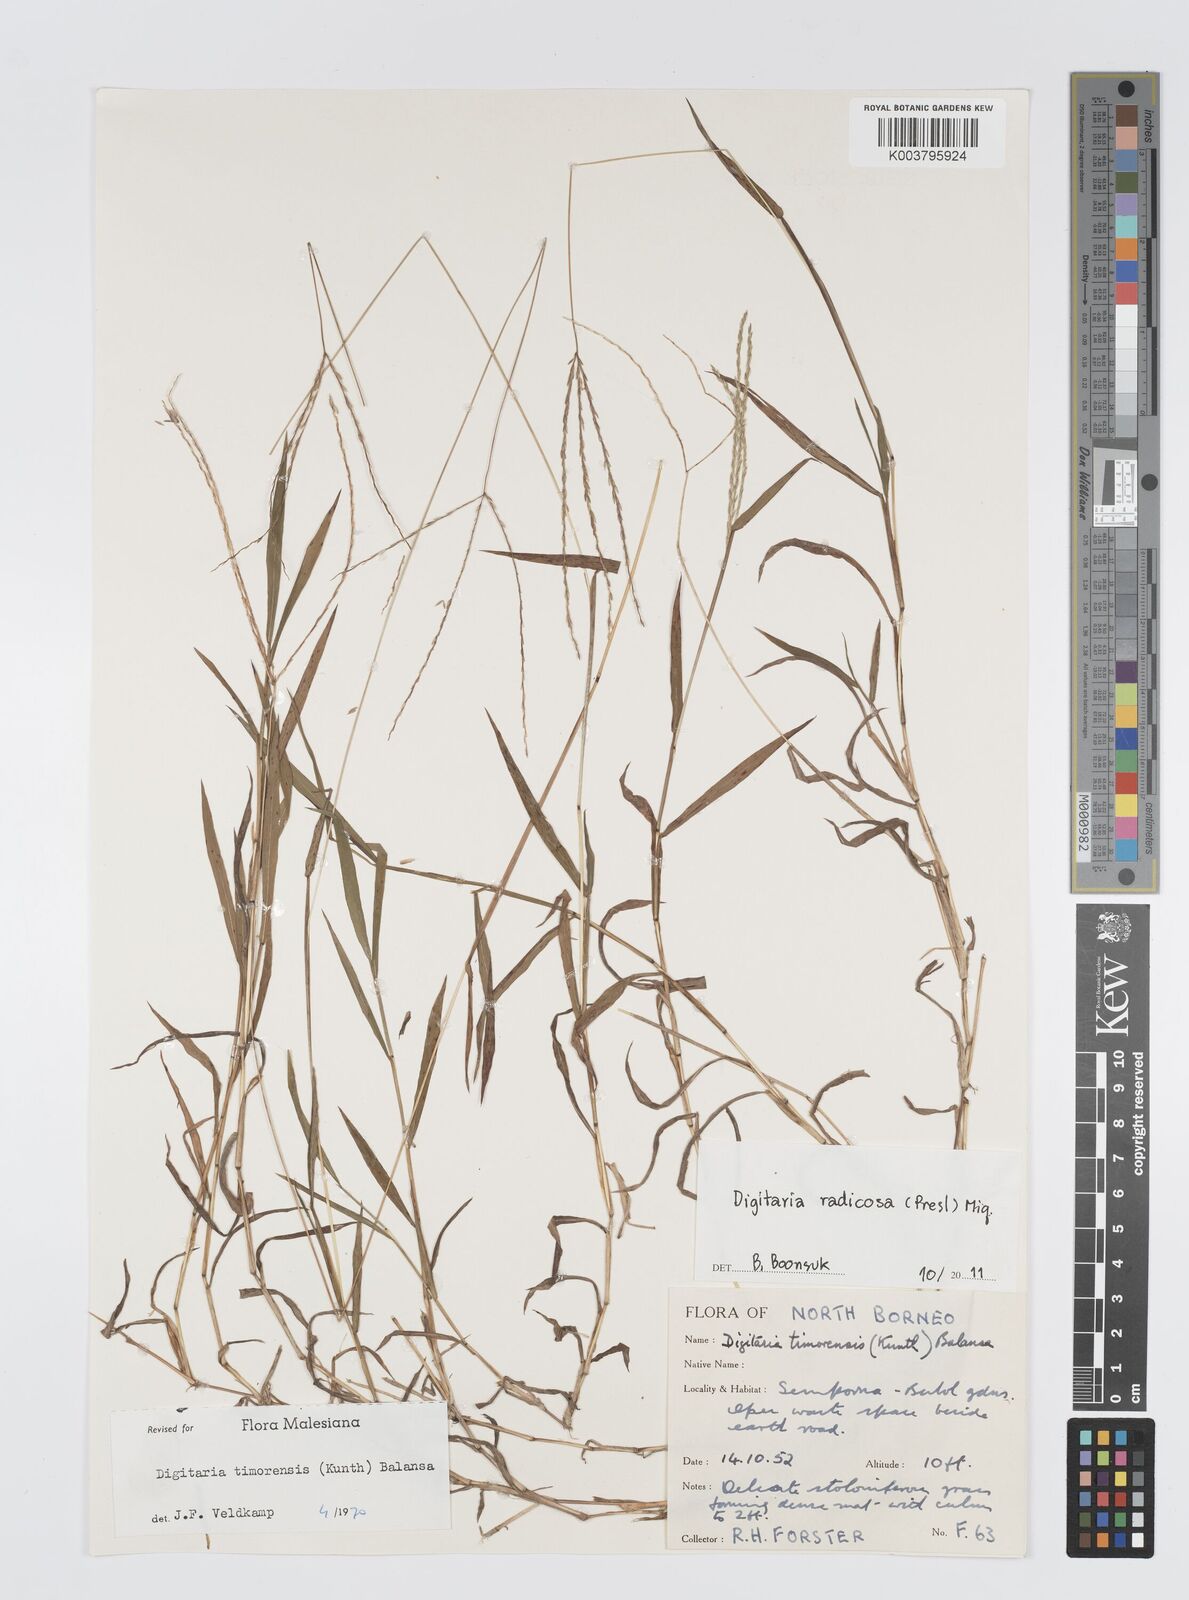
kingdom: Plantae
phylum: Tracheophyta
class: Liliopsida
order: Poales
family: Poaceae
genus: Digitaria
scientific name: Digitaria radicosa
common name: Trailing crabgrass
